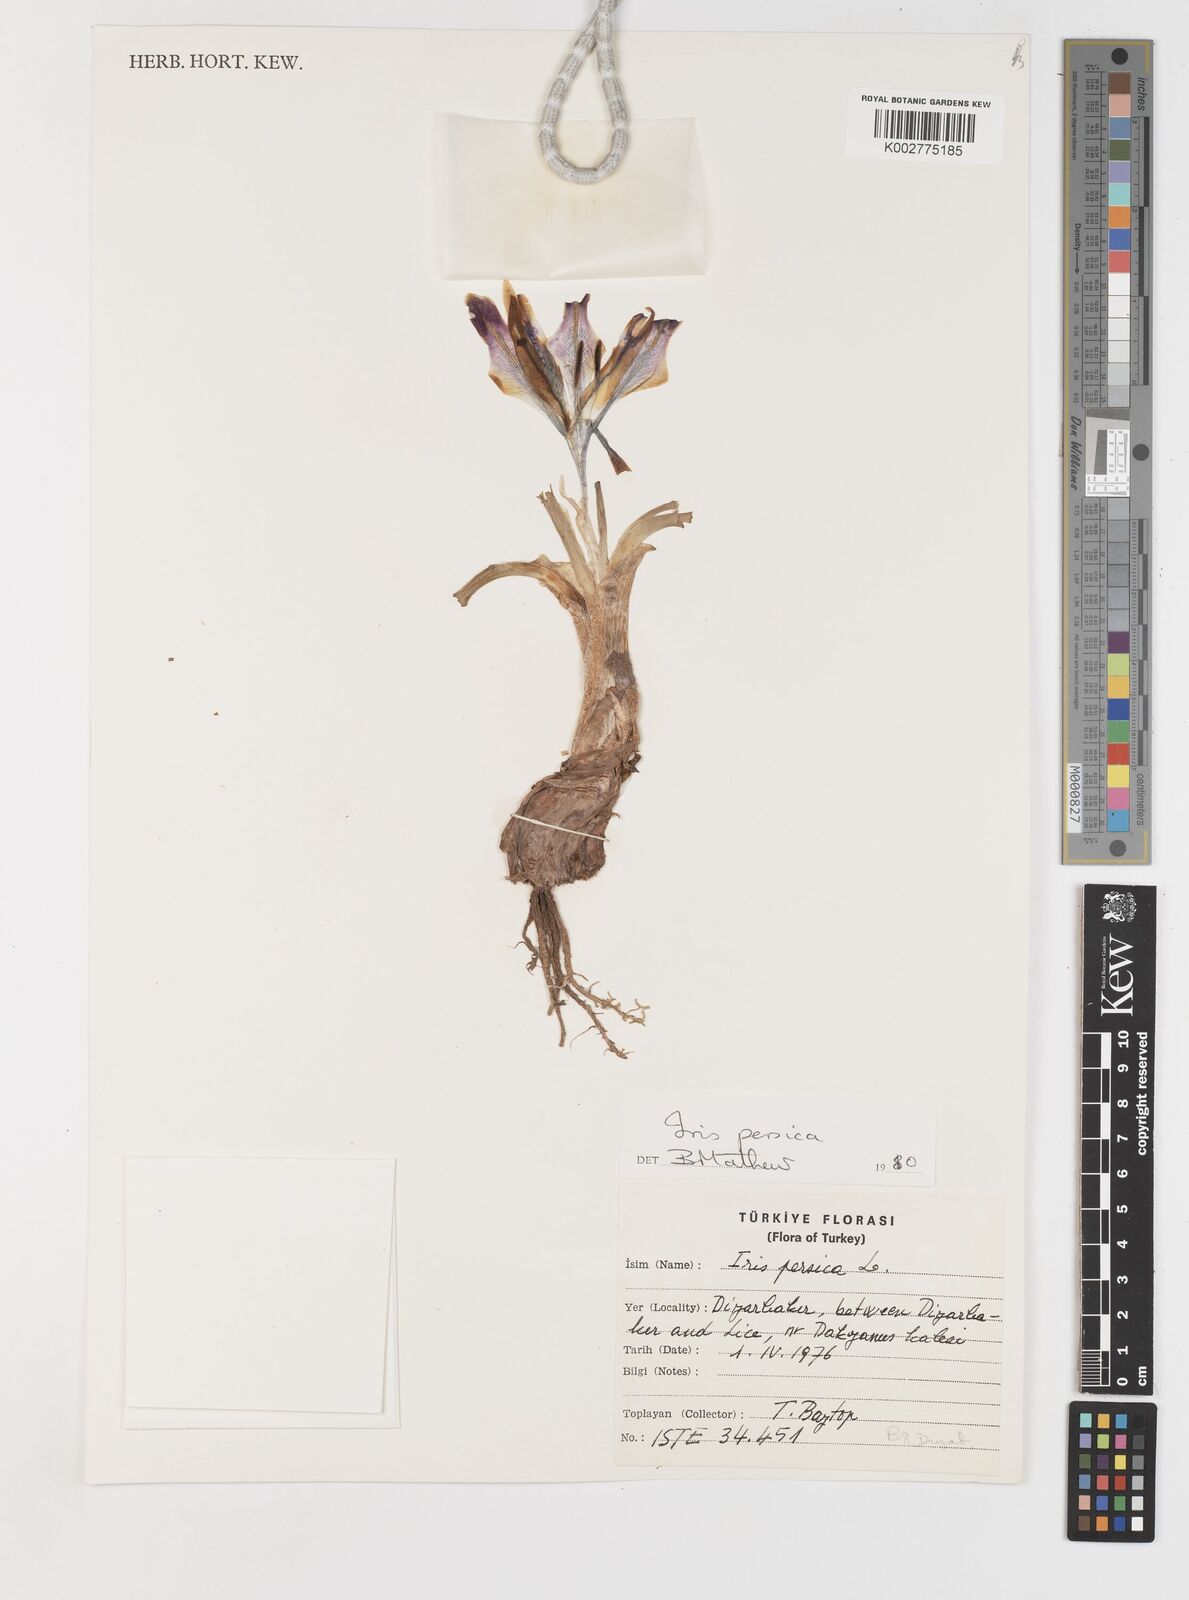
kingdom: Plantae
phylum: Tracheophyta
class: Liliopsida
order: Asparagales
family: Iridaceae
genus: Iris
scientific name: Iris persica
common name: Persian iris
